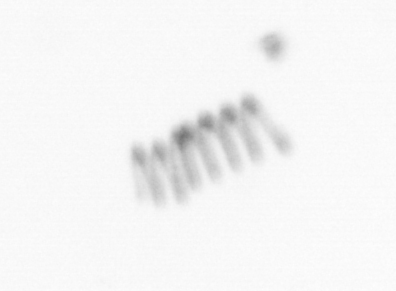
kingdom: Chromista
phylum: Ochrophyta
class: Bacillariophyceae
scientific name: Bacillariophyceae
